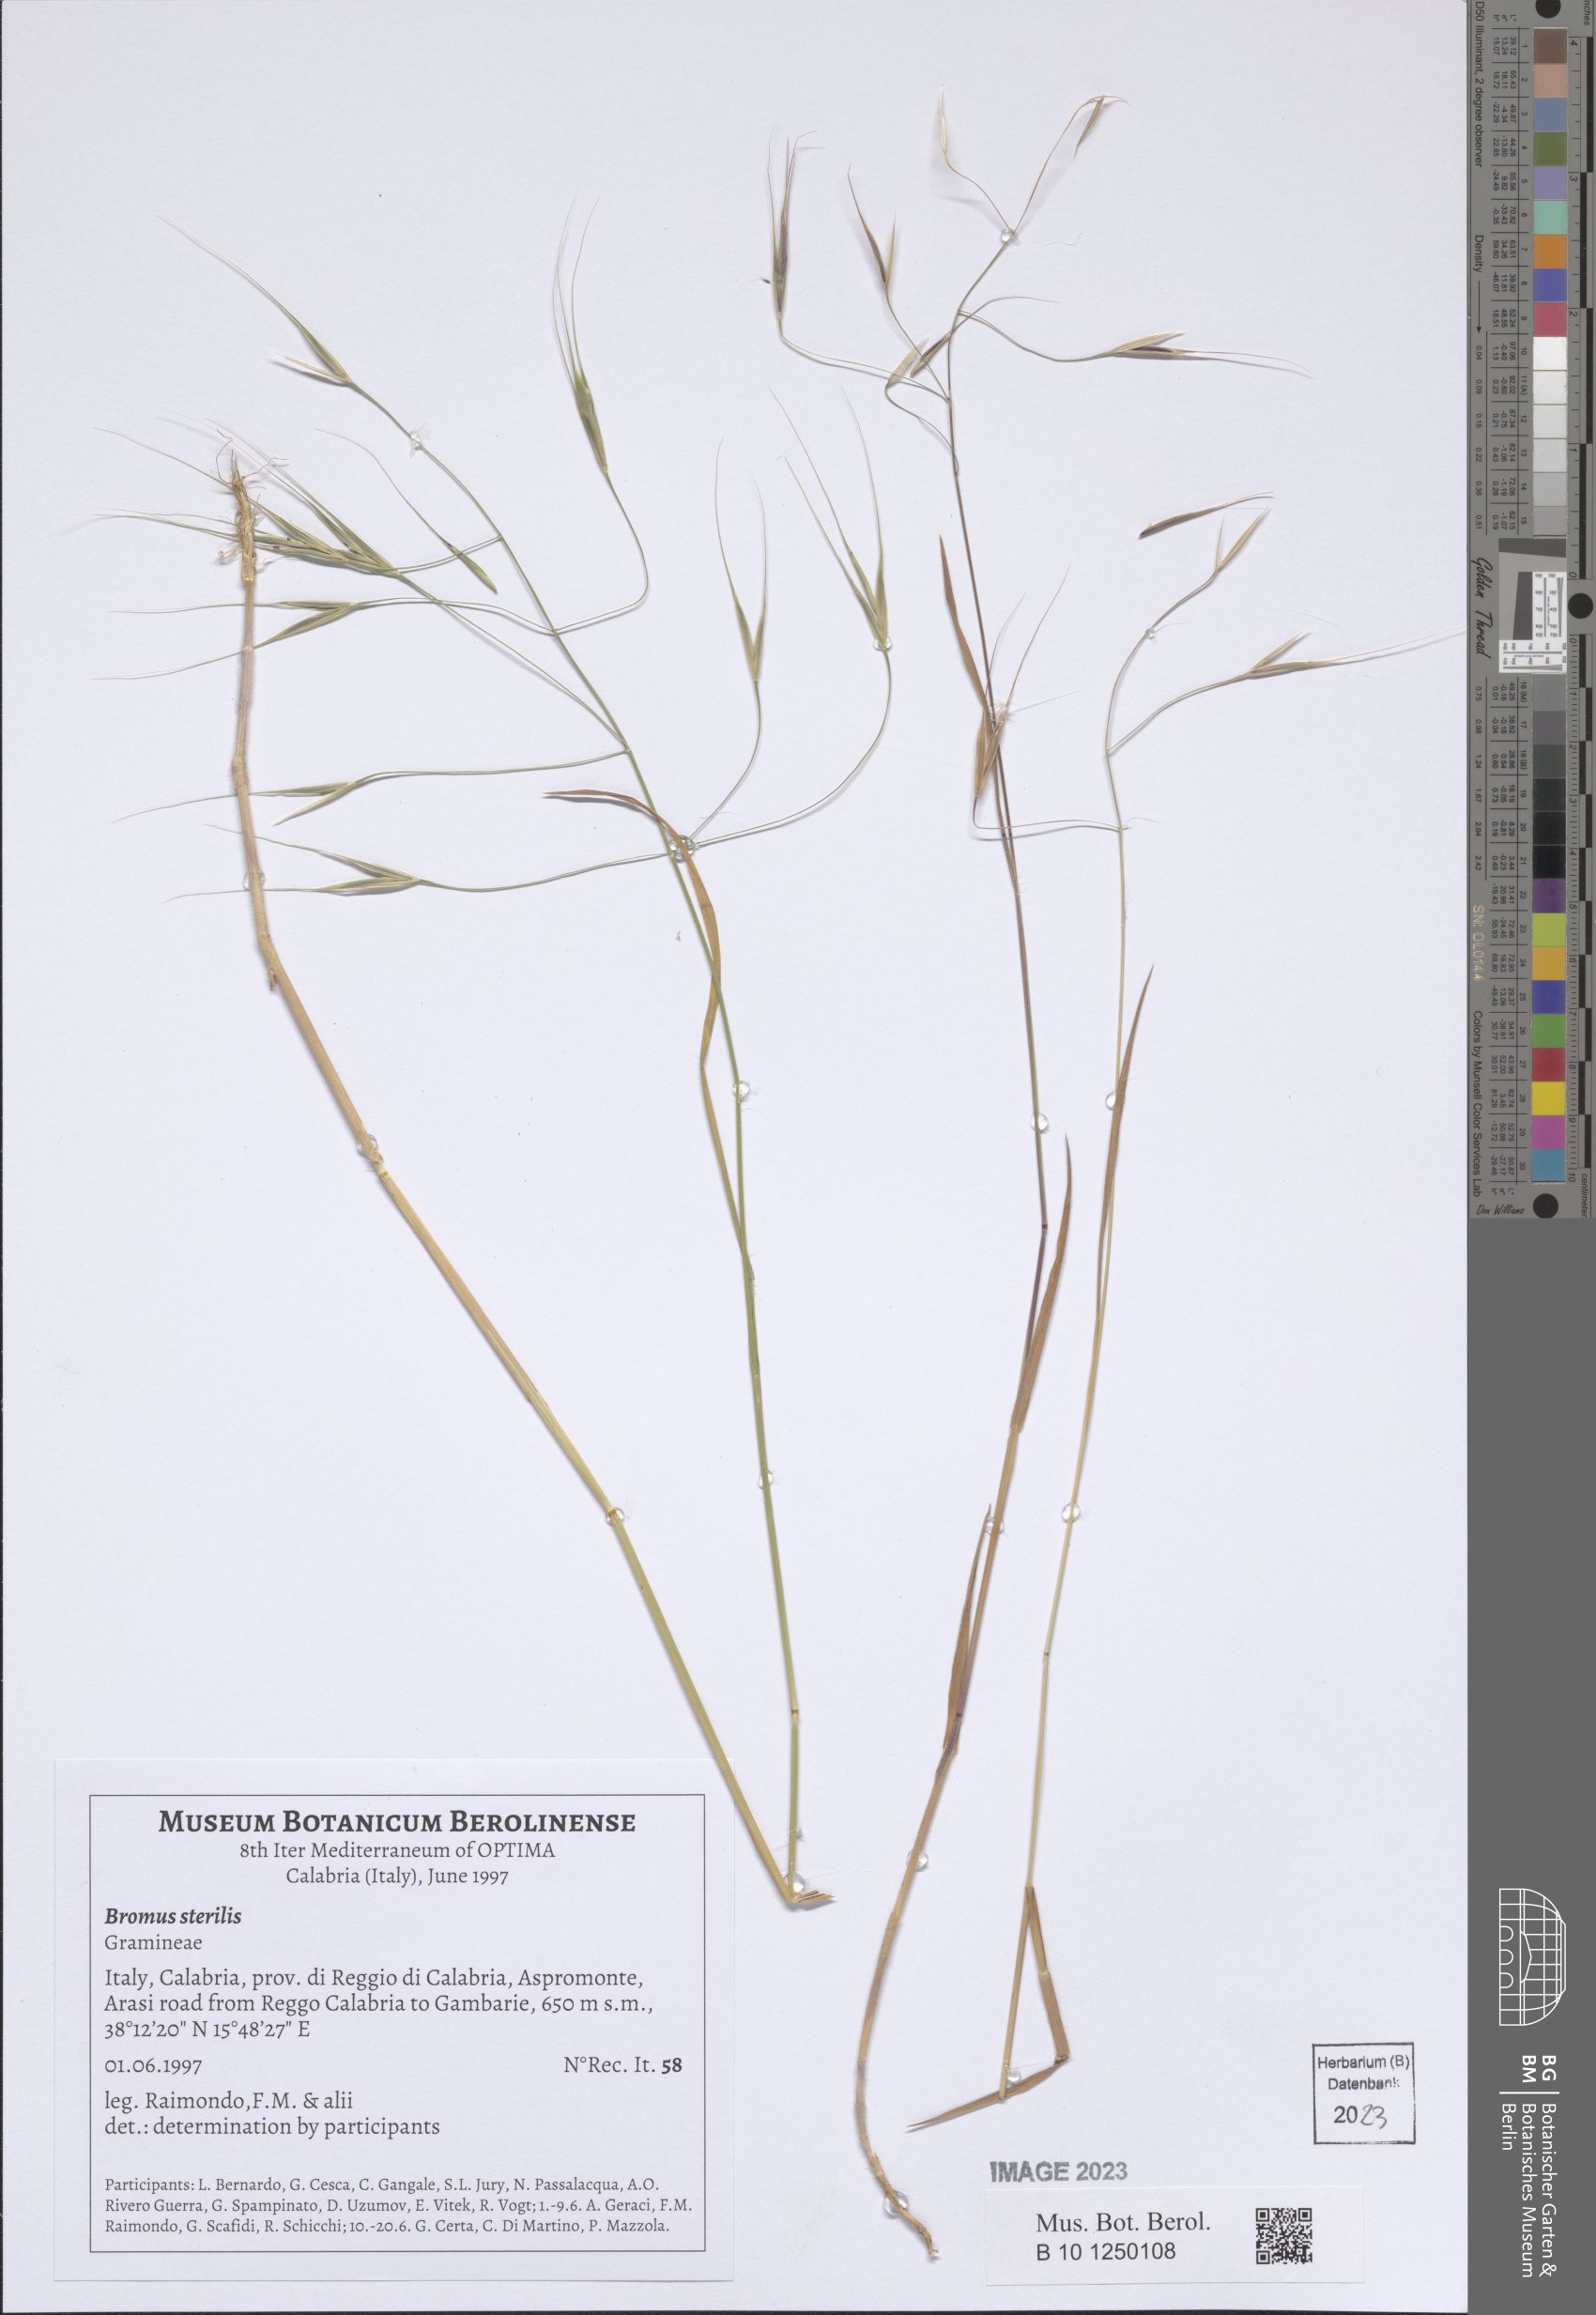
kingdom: Plantae
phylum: Tracheophyta
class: Liliopsida
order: Poales
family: Poaceae
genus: Bromus
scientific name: Bromus sterilis
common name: Poverty brome
